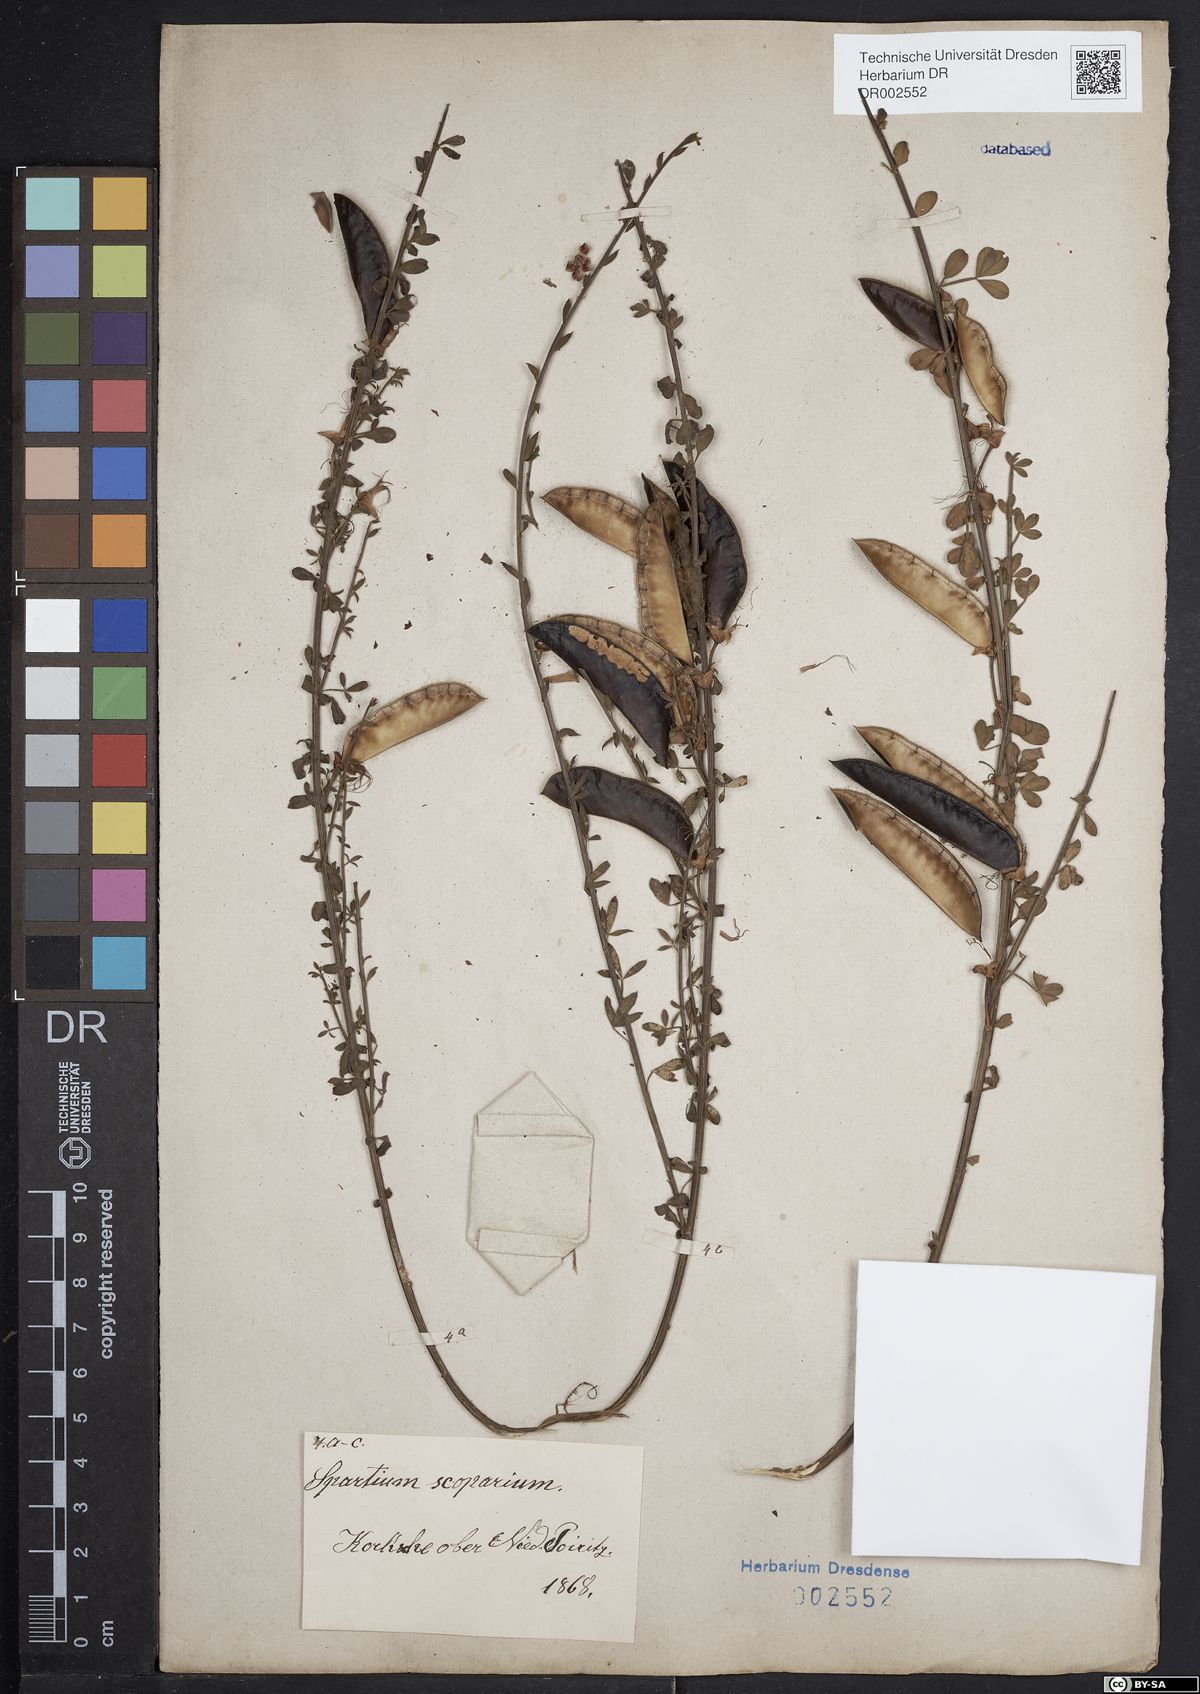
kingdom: Plantae
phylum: Tracheophyta
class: Magnoliopsida
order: Fabales
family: Fabaceae
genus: Cytisus
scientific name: Cytisus scoparius
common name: Scotch broom
